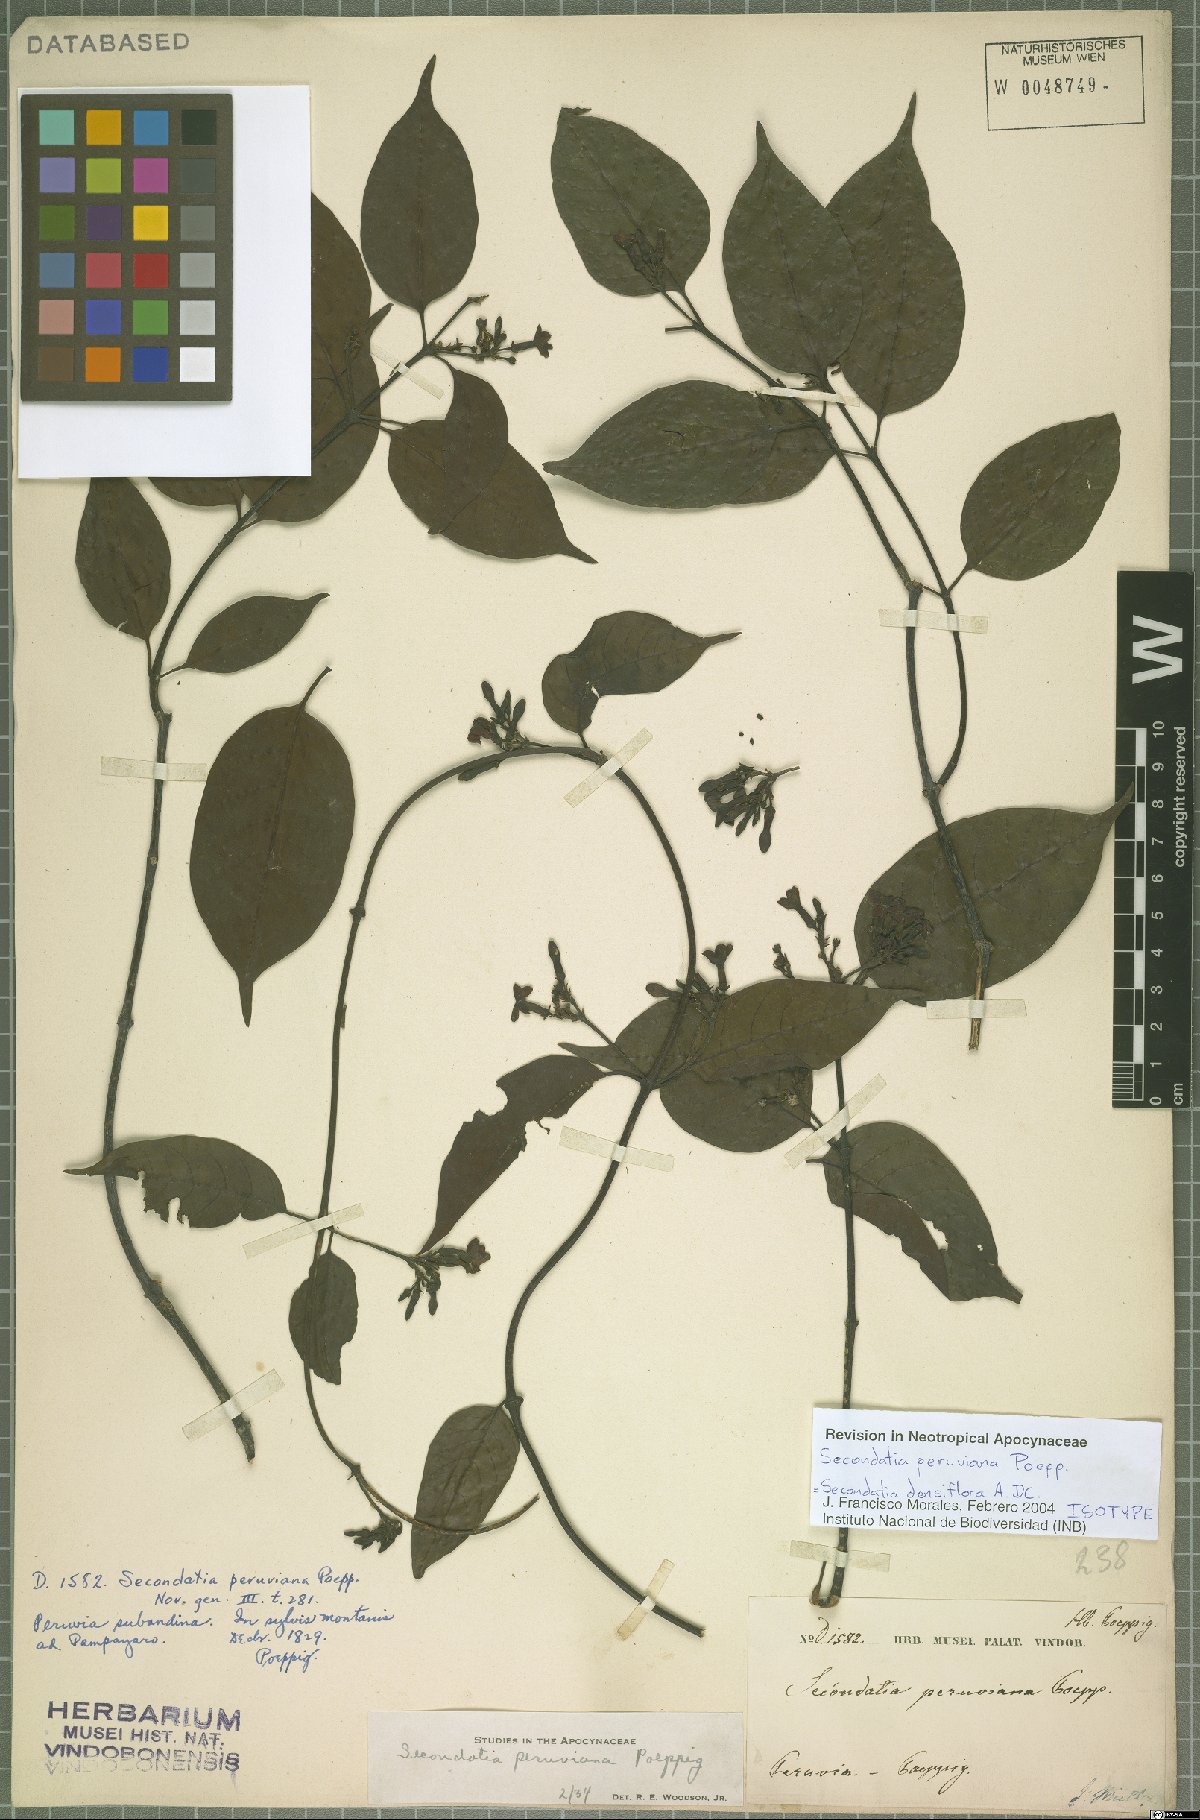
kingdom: Plantae
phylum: Tracheophyta
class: Magnoliopsida
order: Gentianales
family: Apocynaceae
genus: Secondatia
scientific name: Secondatia densiflora
